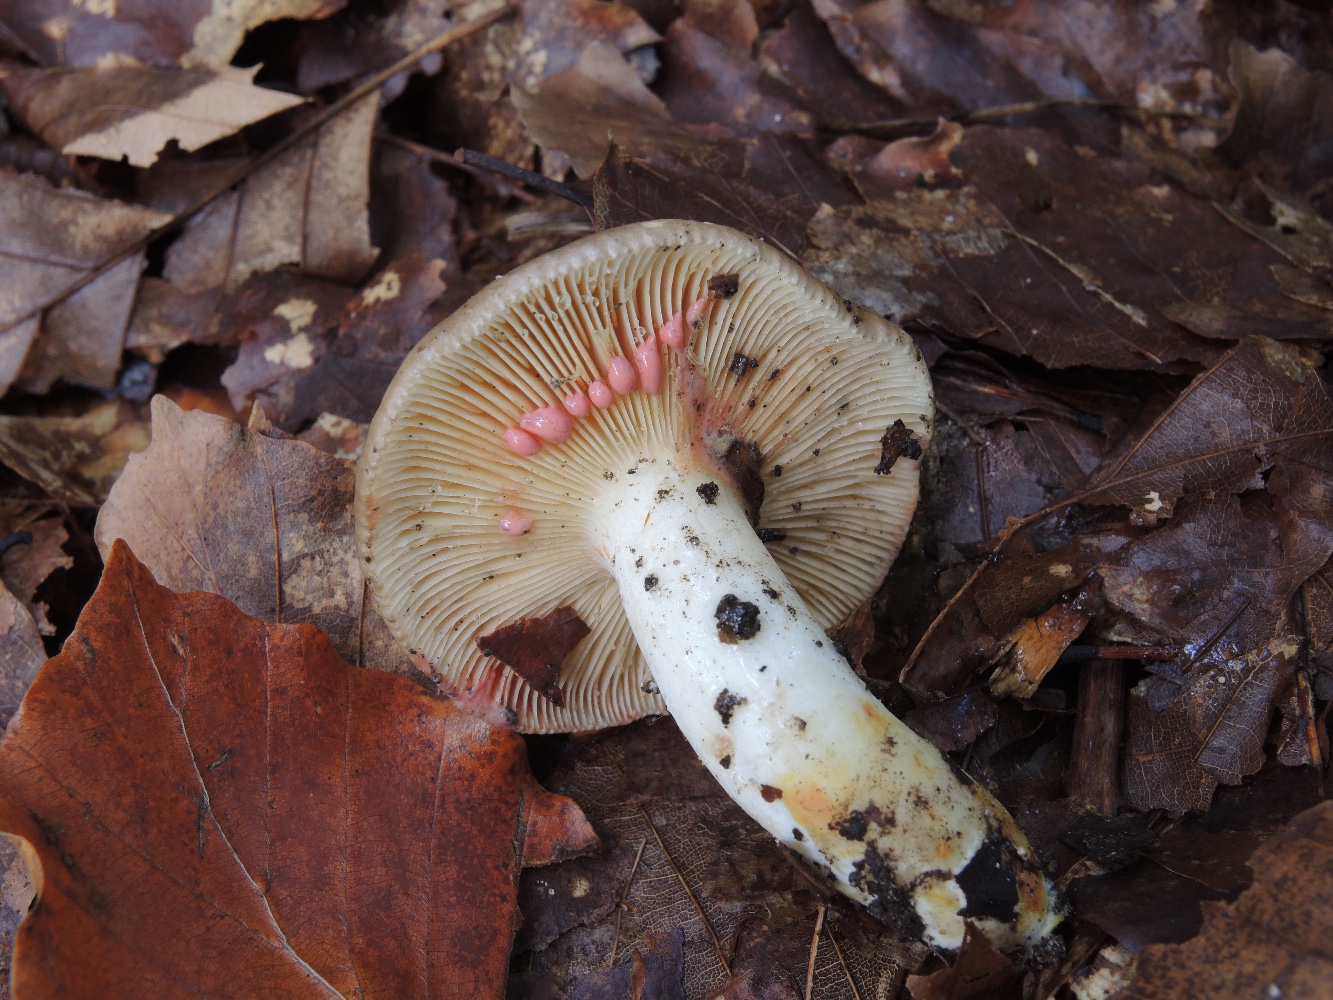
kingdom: Fungi
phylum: Basidiomycota
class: Agaricomycetes
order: Russulales
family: Russulaceae
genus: Lactarius
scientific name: Lactarius acris
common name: rosamælket mælkehat
